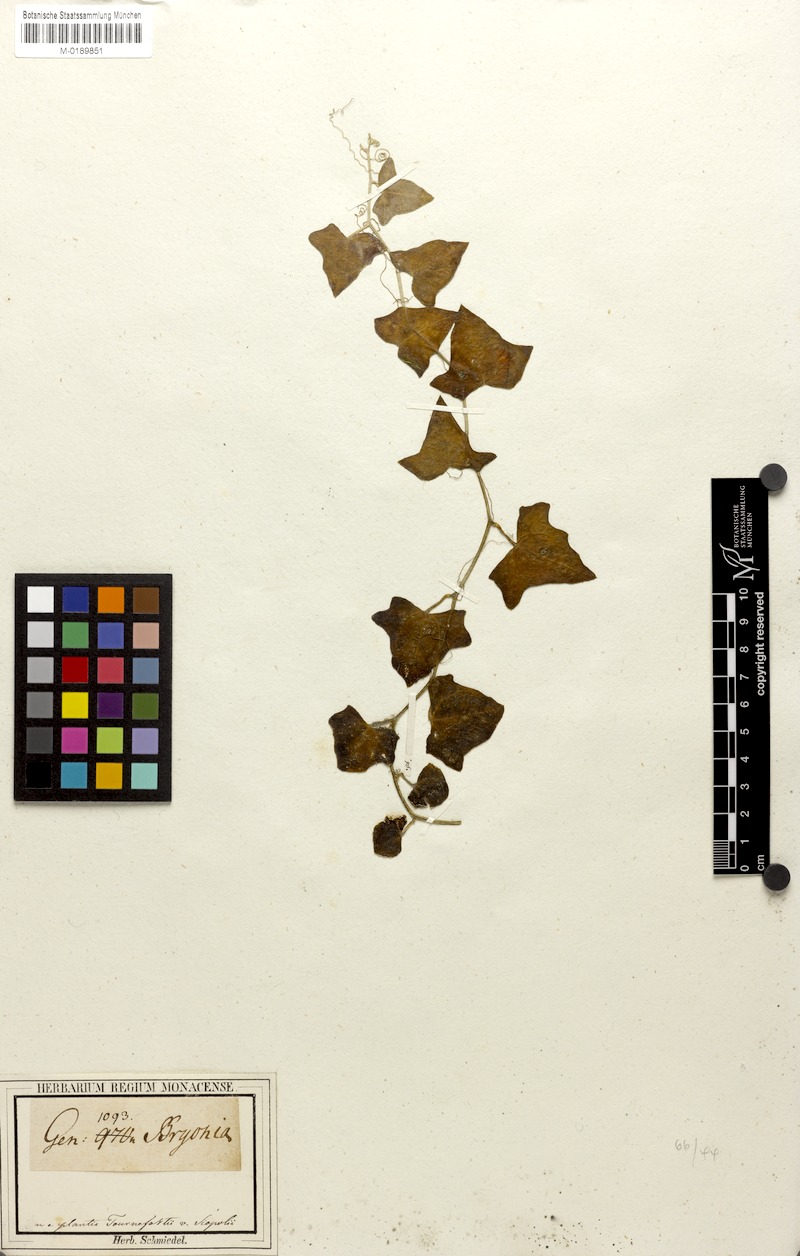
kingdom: Plantae
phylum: Tracheophyta
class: Magnoliopsida
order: Cucurbitales
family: Cucurbitaceae
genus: Bryonia
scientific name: Bryonia cretica
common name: Cretan bryony
